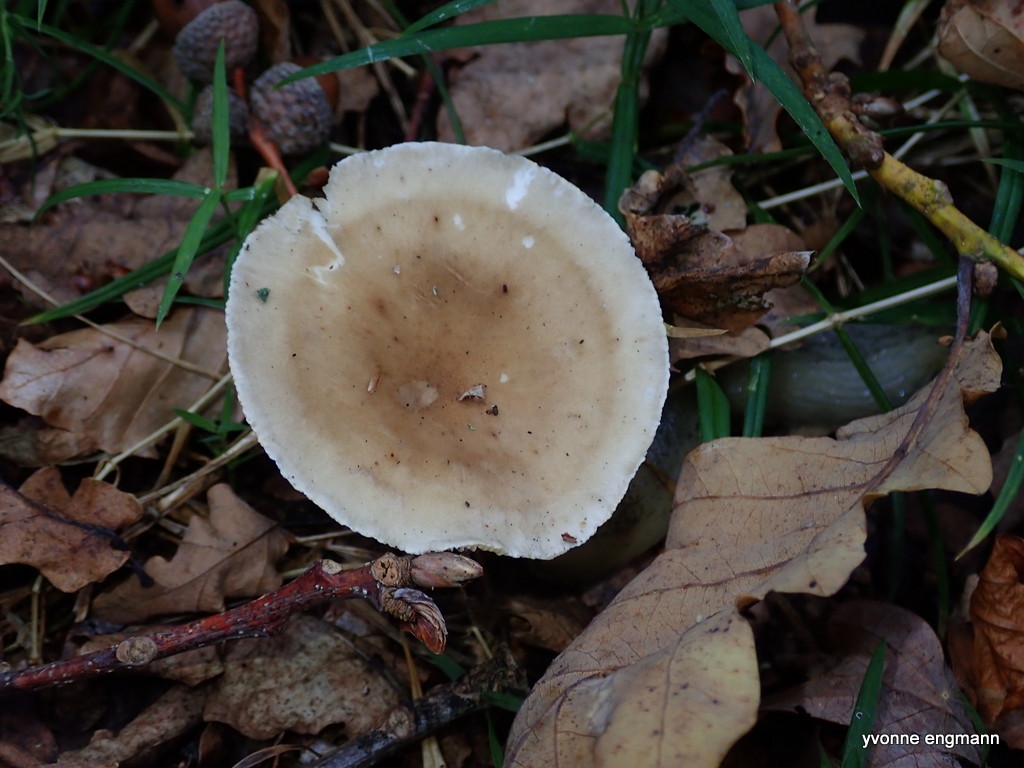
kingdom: Fungi
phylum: Basidiomycota
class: Agaricomycetes
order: Agaricales
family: Hygrophoraceae
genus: Ampulloclitocybe
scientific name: Ampulloclitocybe clavipes
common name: køllefod
